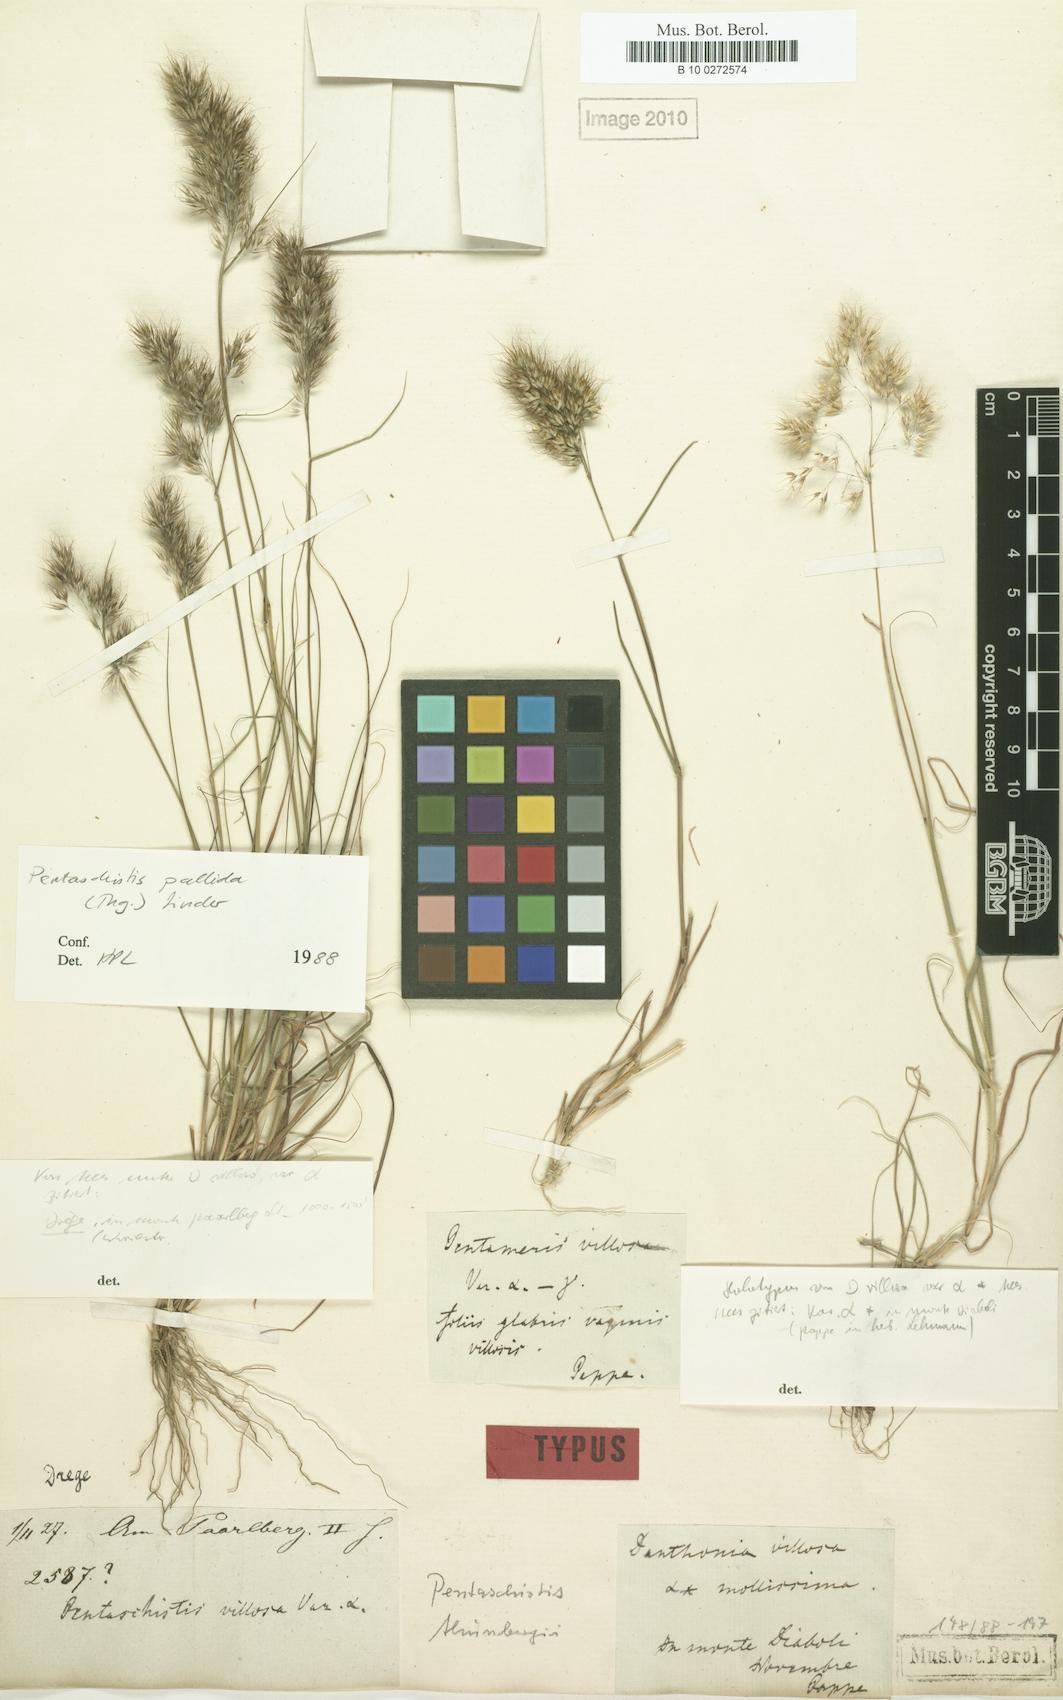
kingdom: Plantae
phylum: Tracheophyta
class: Liliopsida
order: Poales
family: Poaceae
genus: Pentameris
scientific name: Pentameris triseta
